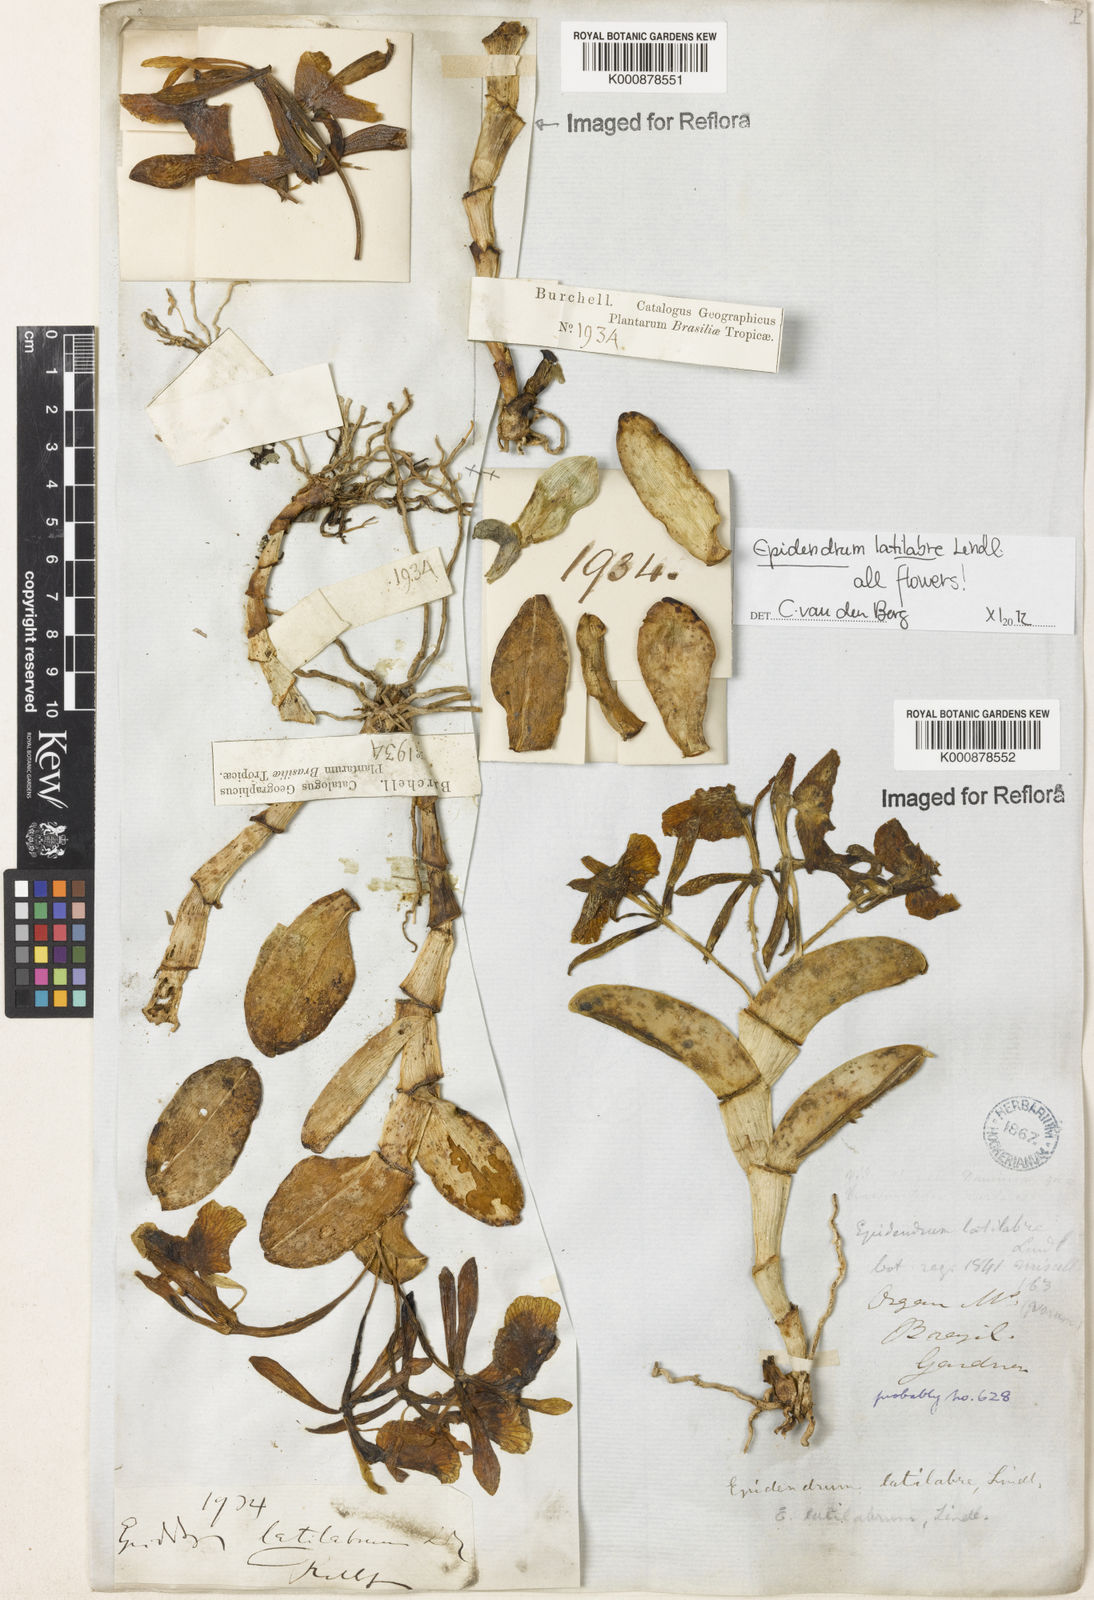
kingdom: Plantae
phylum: Tracheophyta
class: Liliopsida
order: Asparagales
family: Orchidaceae
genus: Epidendrum
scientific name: Epidendrum latilabre
